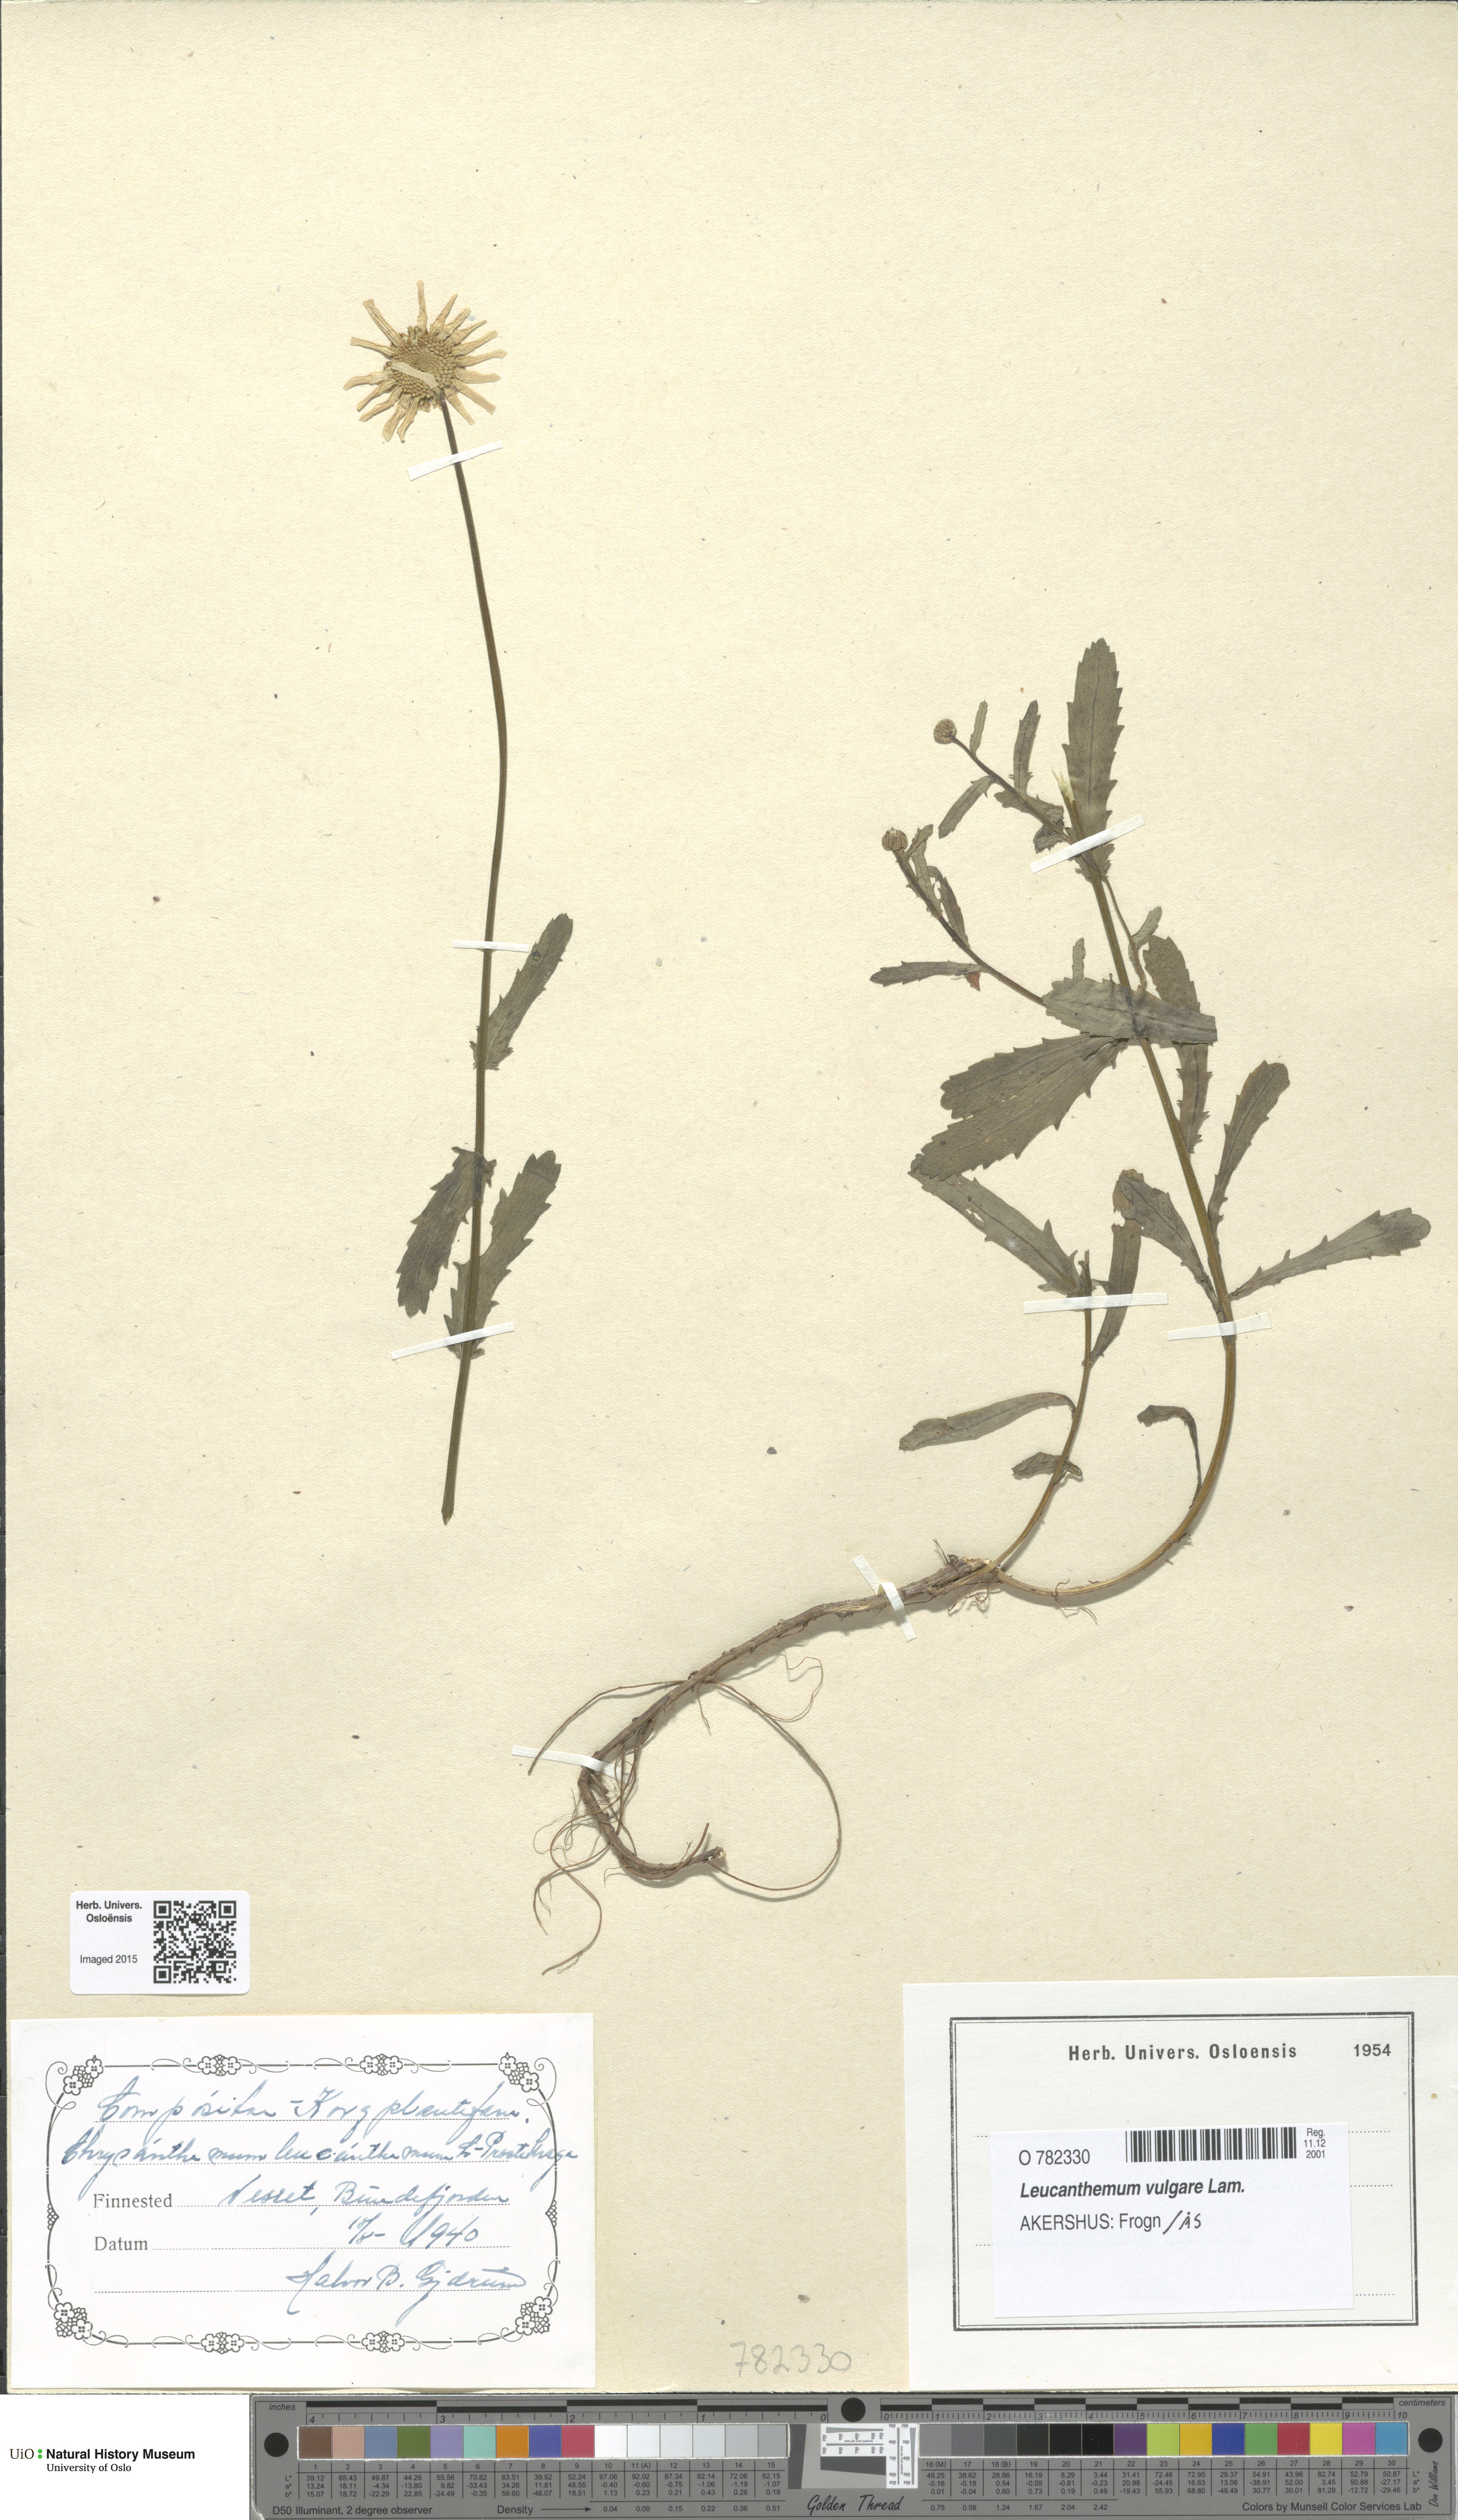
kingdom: Plantae
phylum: Tracheophyta
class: Magnoliopsida
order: Asterales
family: Asteraceae
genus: Leucanthemum
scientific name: Leucanthemum vulgare
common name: Oxeye daisy
